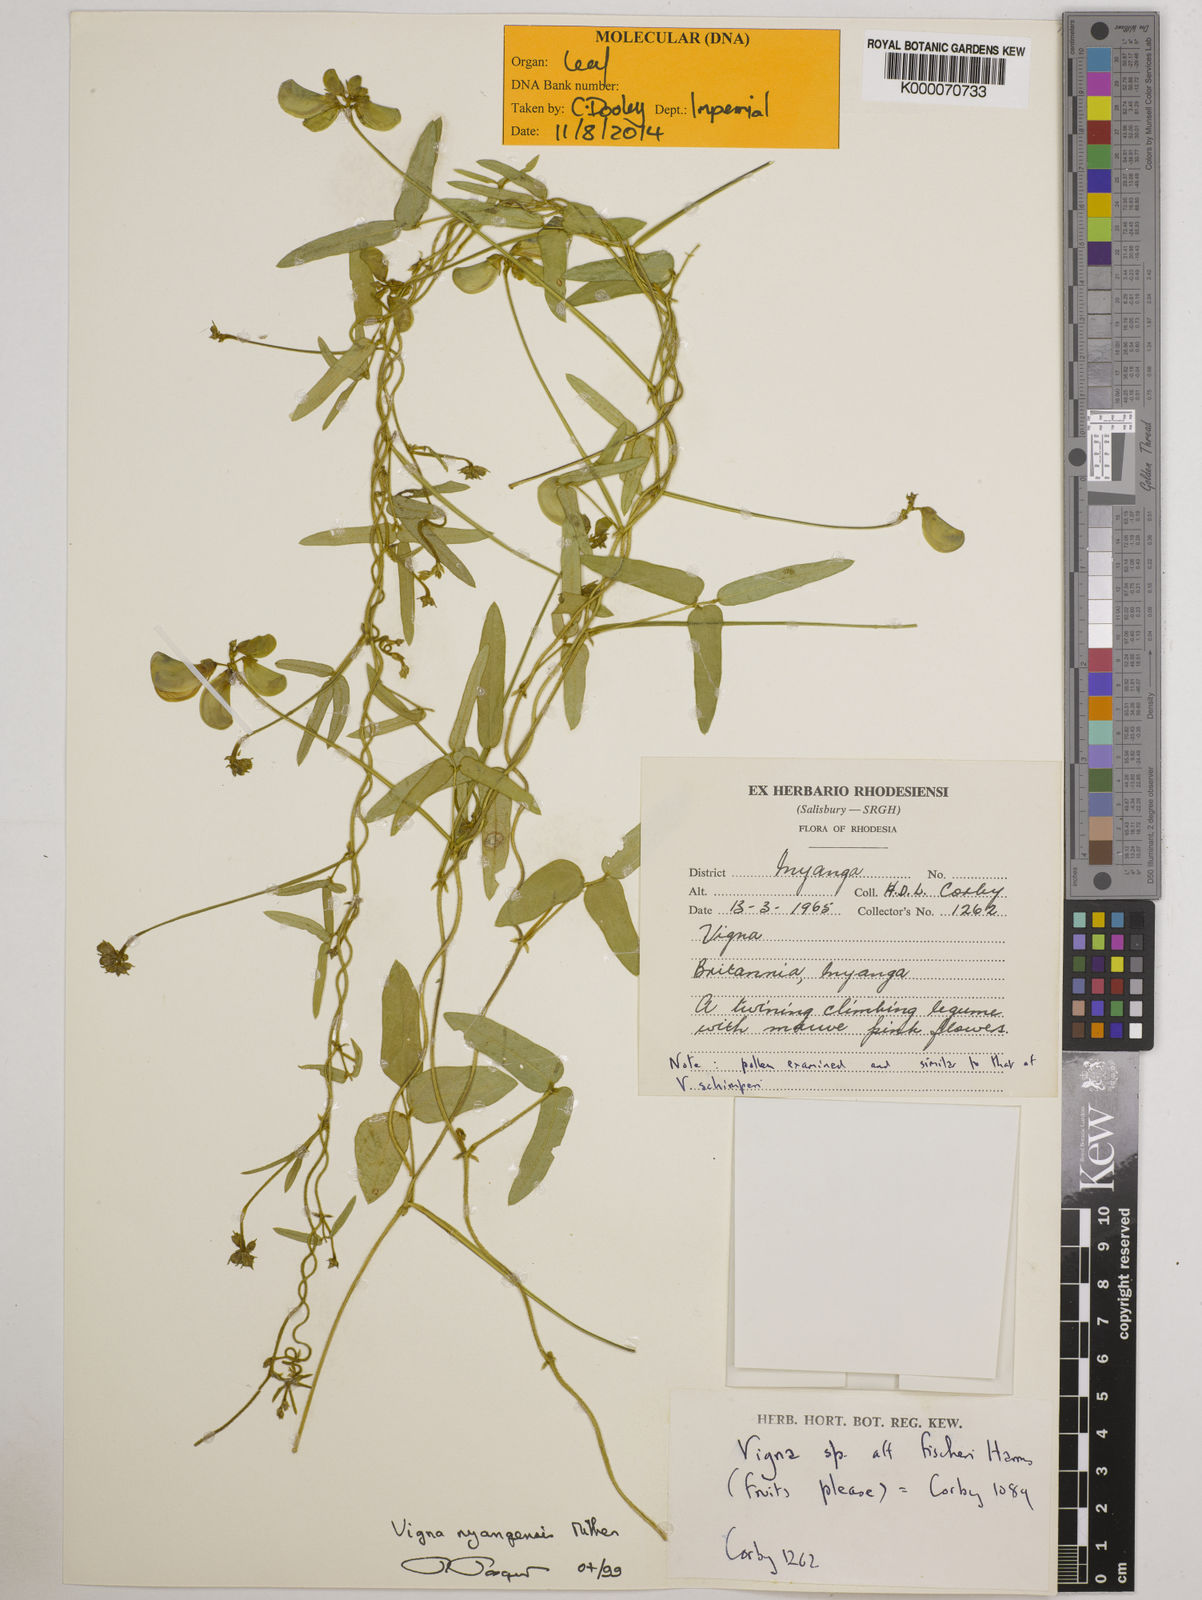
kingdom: Plantae
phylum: Tracheophyta
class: Magnoliopsida
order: Fabales
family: Fabaceae
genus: Vigna
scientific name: Vigna nyangensis
